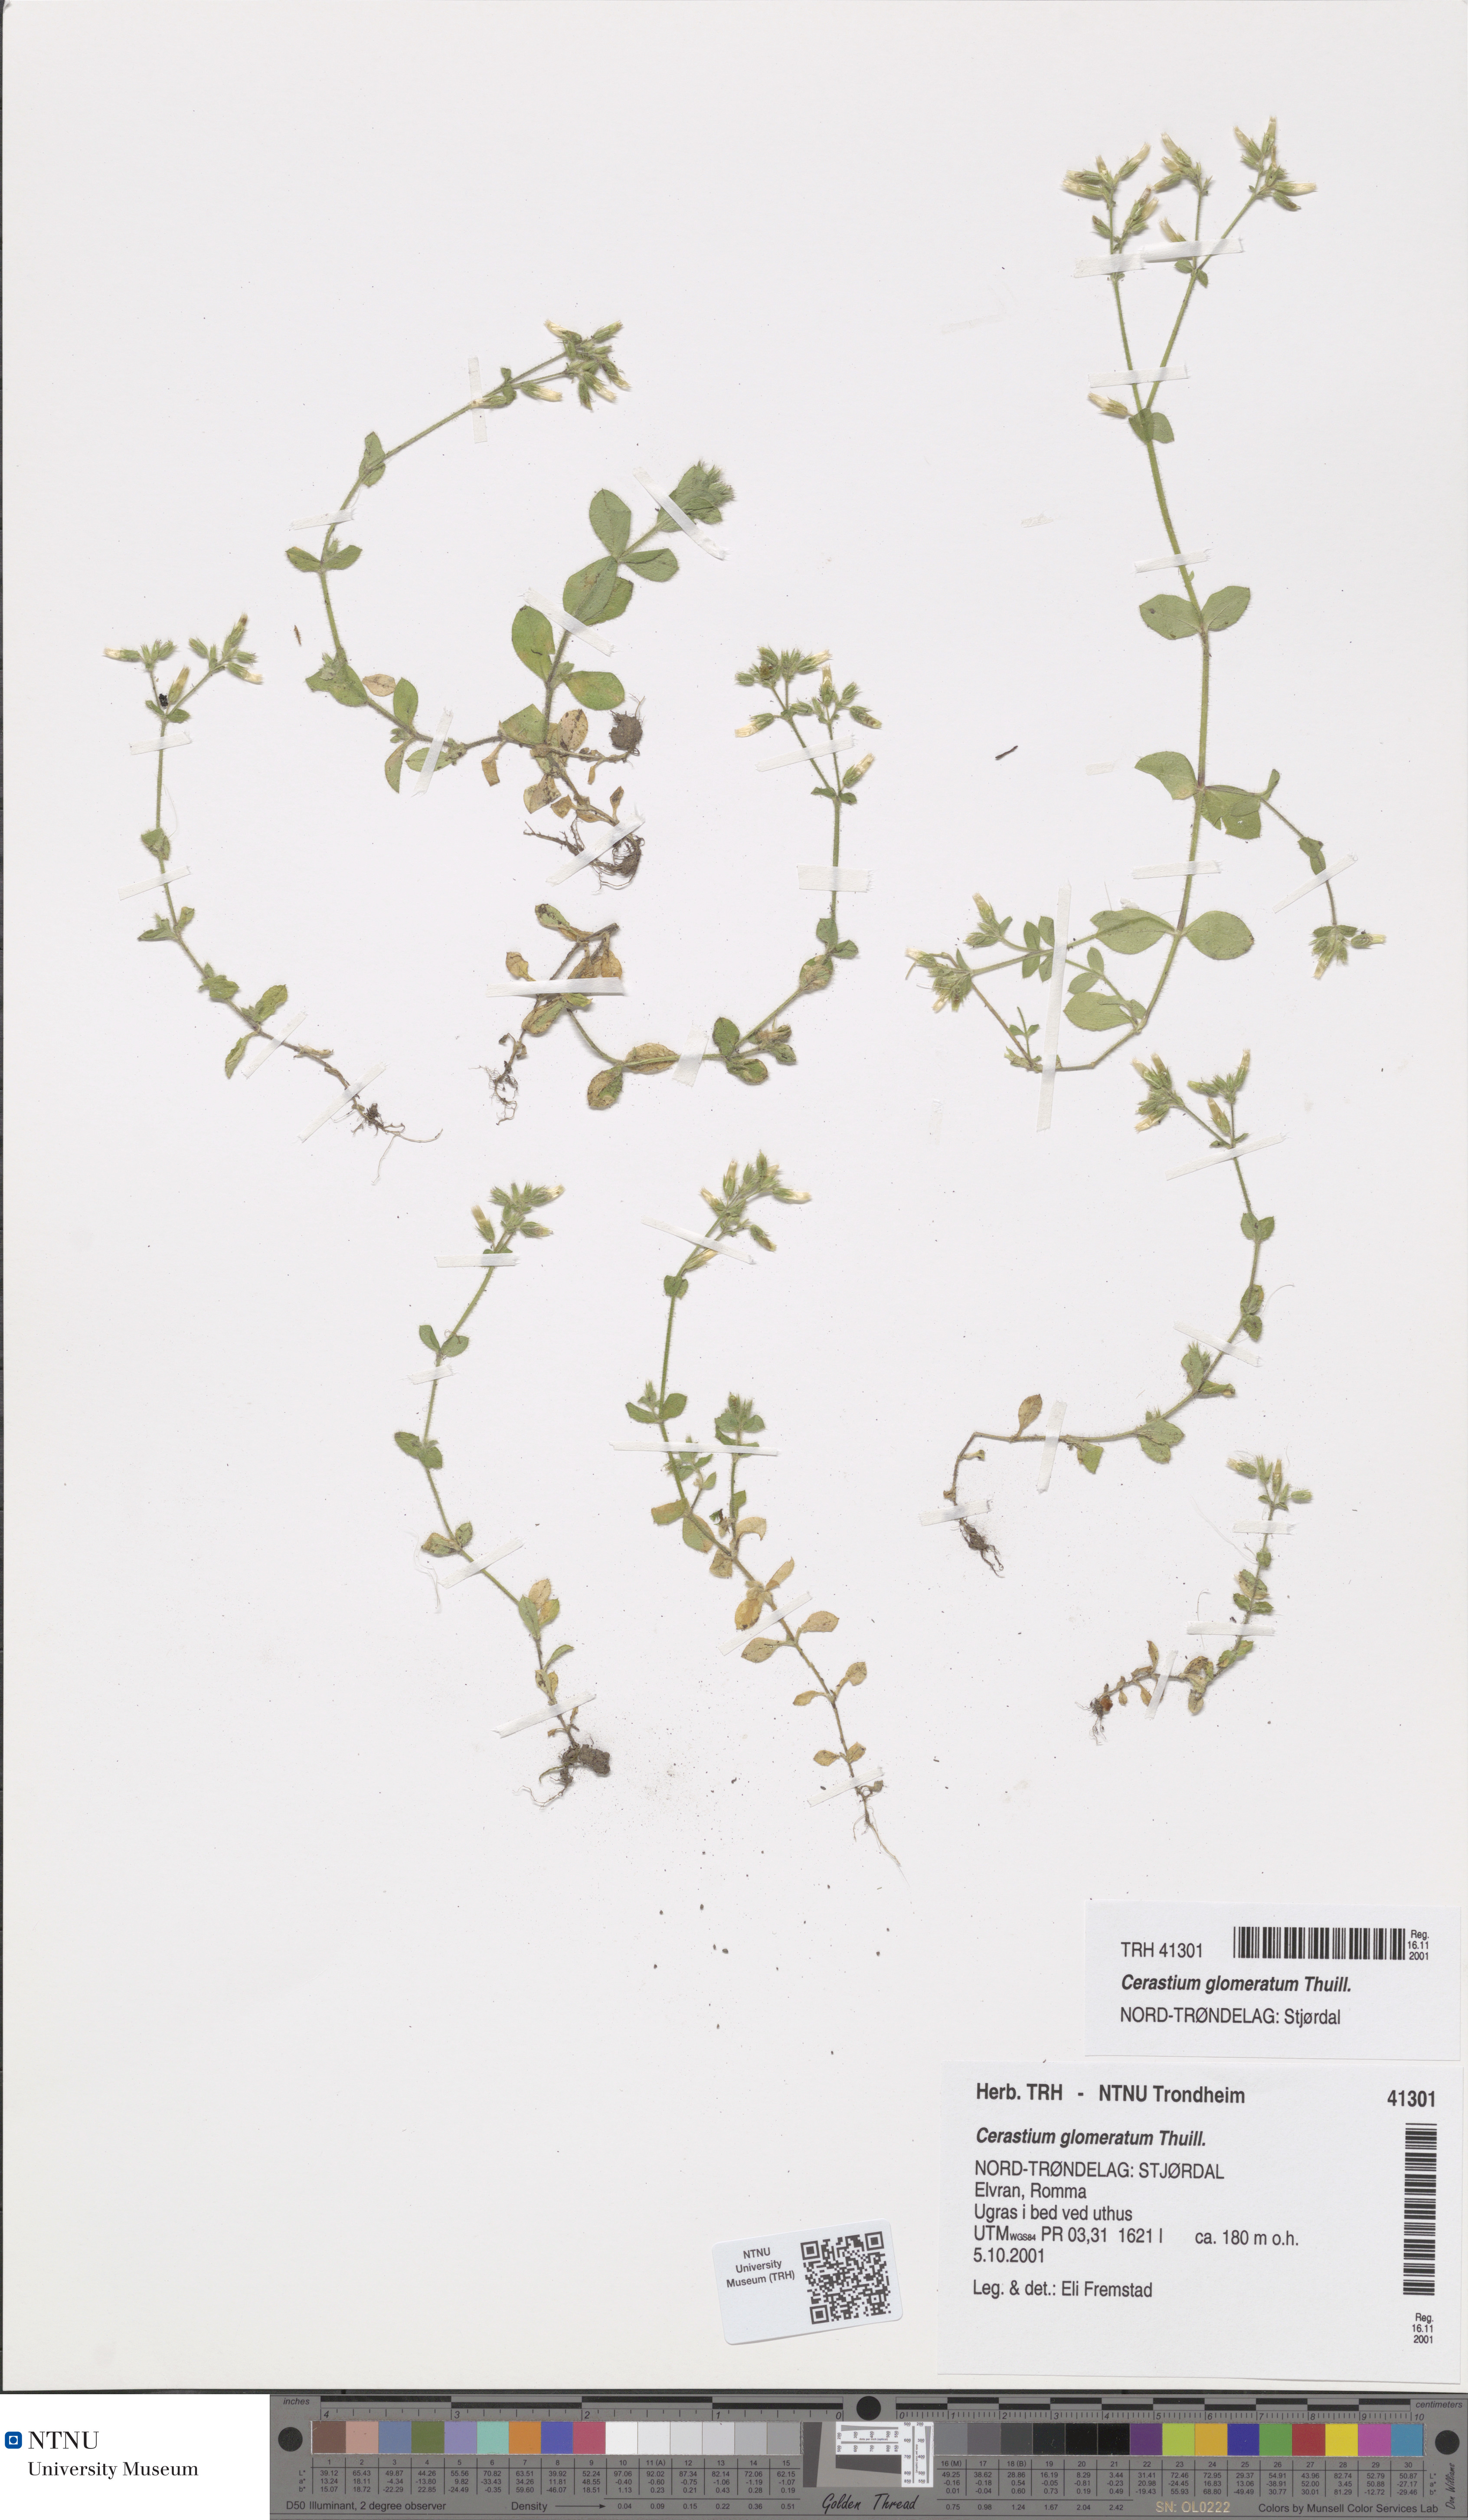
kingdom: Plantae
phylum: Tracheophyta
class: Magnoliopsida
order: Caryophyllales
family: Caryophyllaceae
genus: Cerastium
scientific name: Cerastium glomeratum
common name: Sticky chickweed
